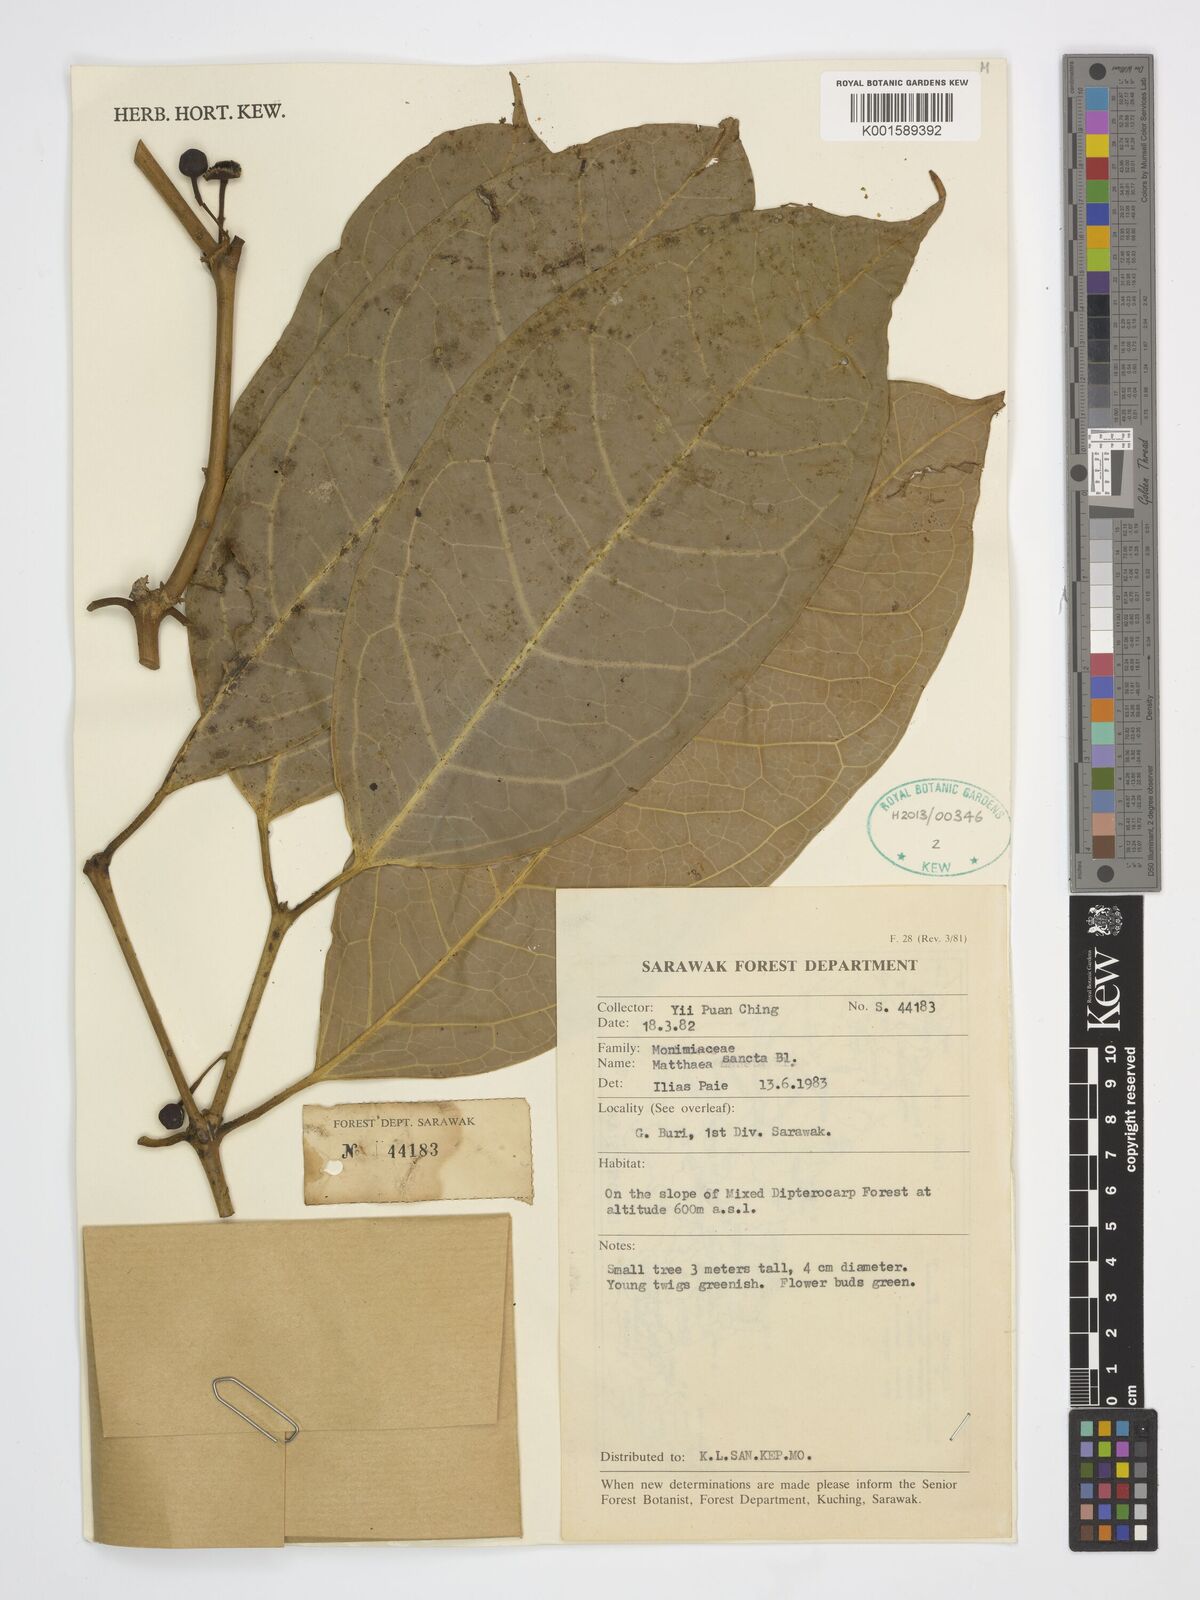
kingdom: Plantae
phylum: Tracheophyta
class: Magnoliopsida
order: Laurales
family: Monimiaceae
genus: Matthaea
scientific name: Matthaea sancta
